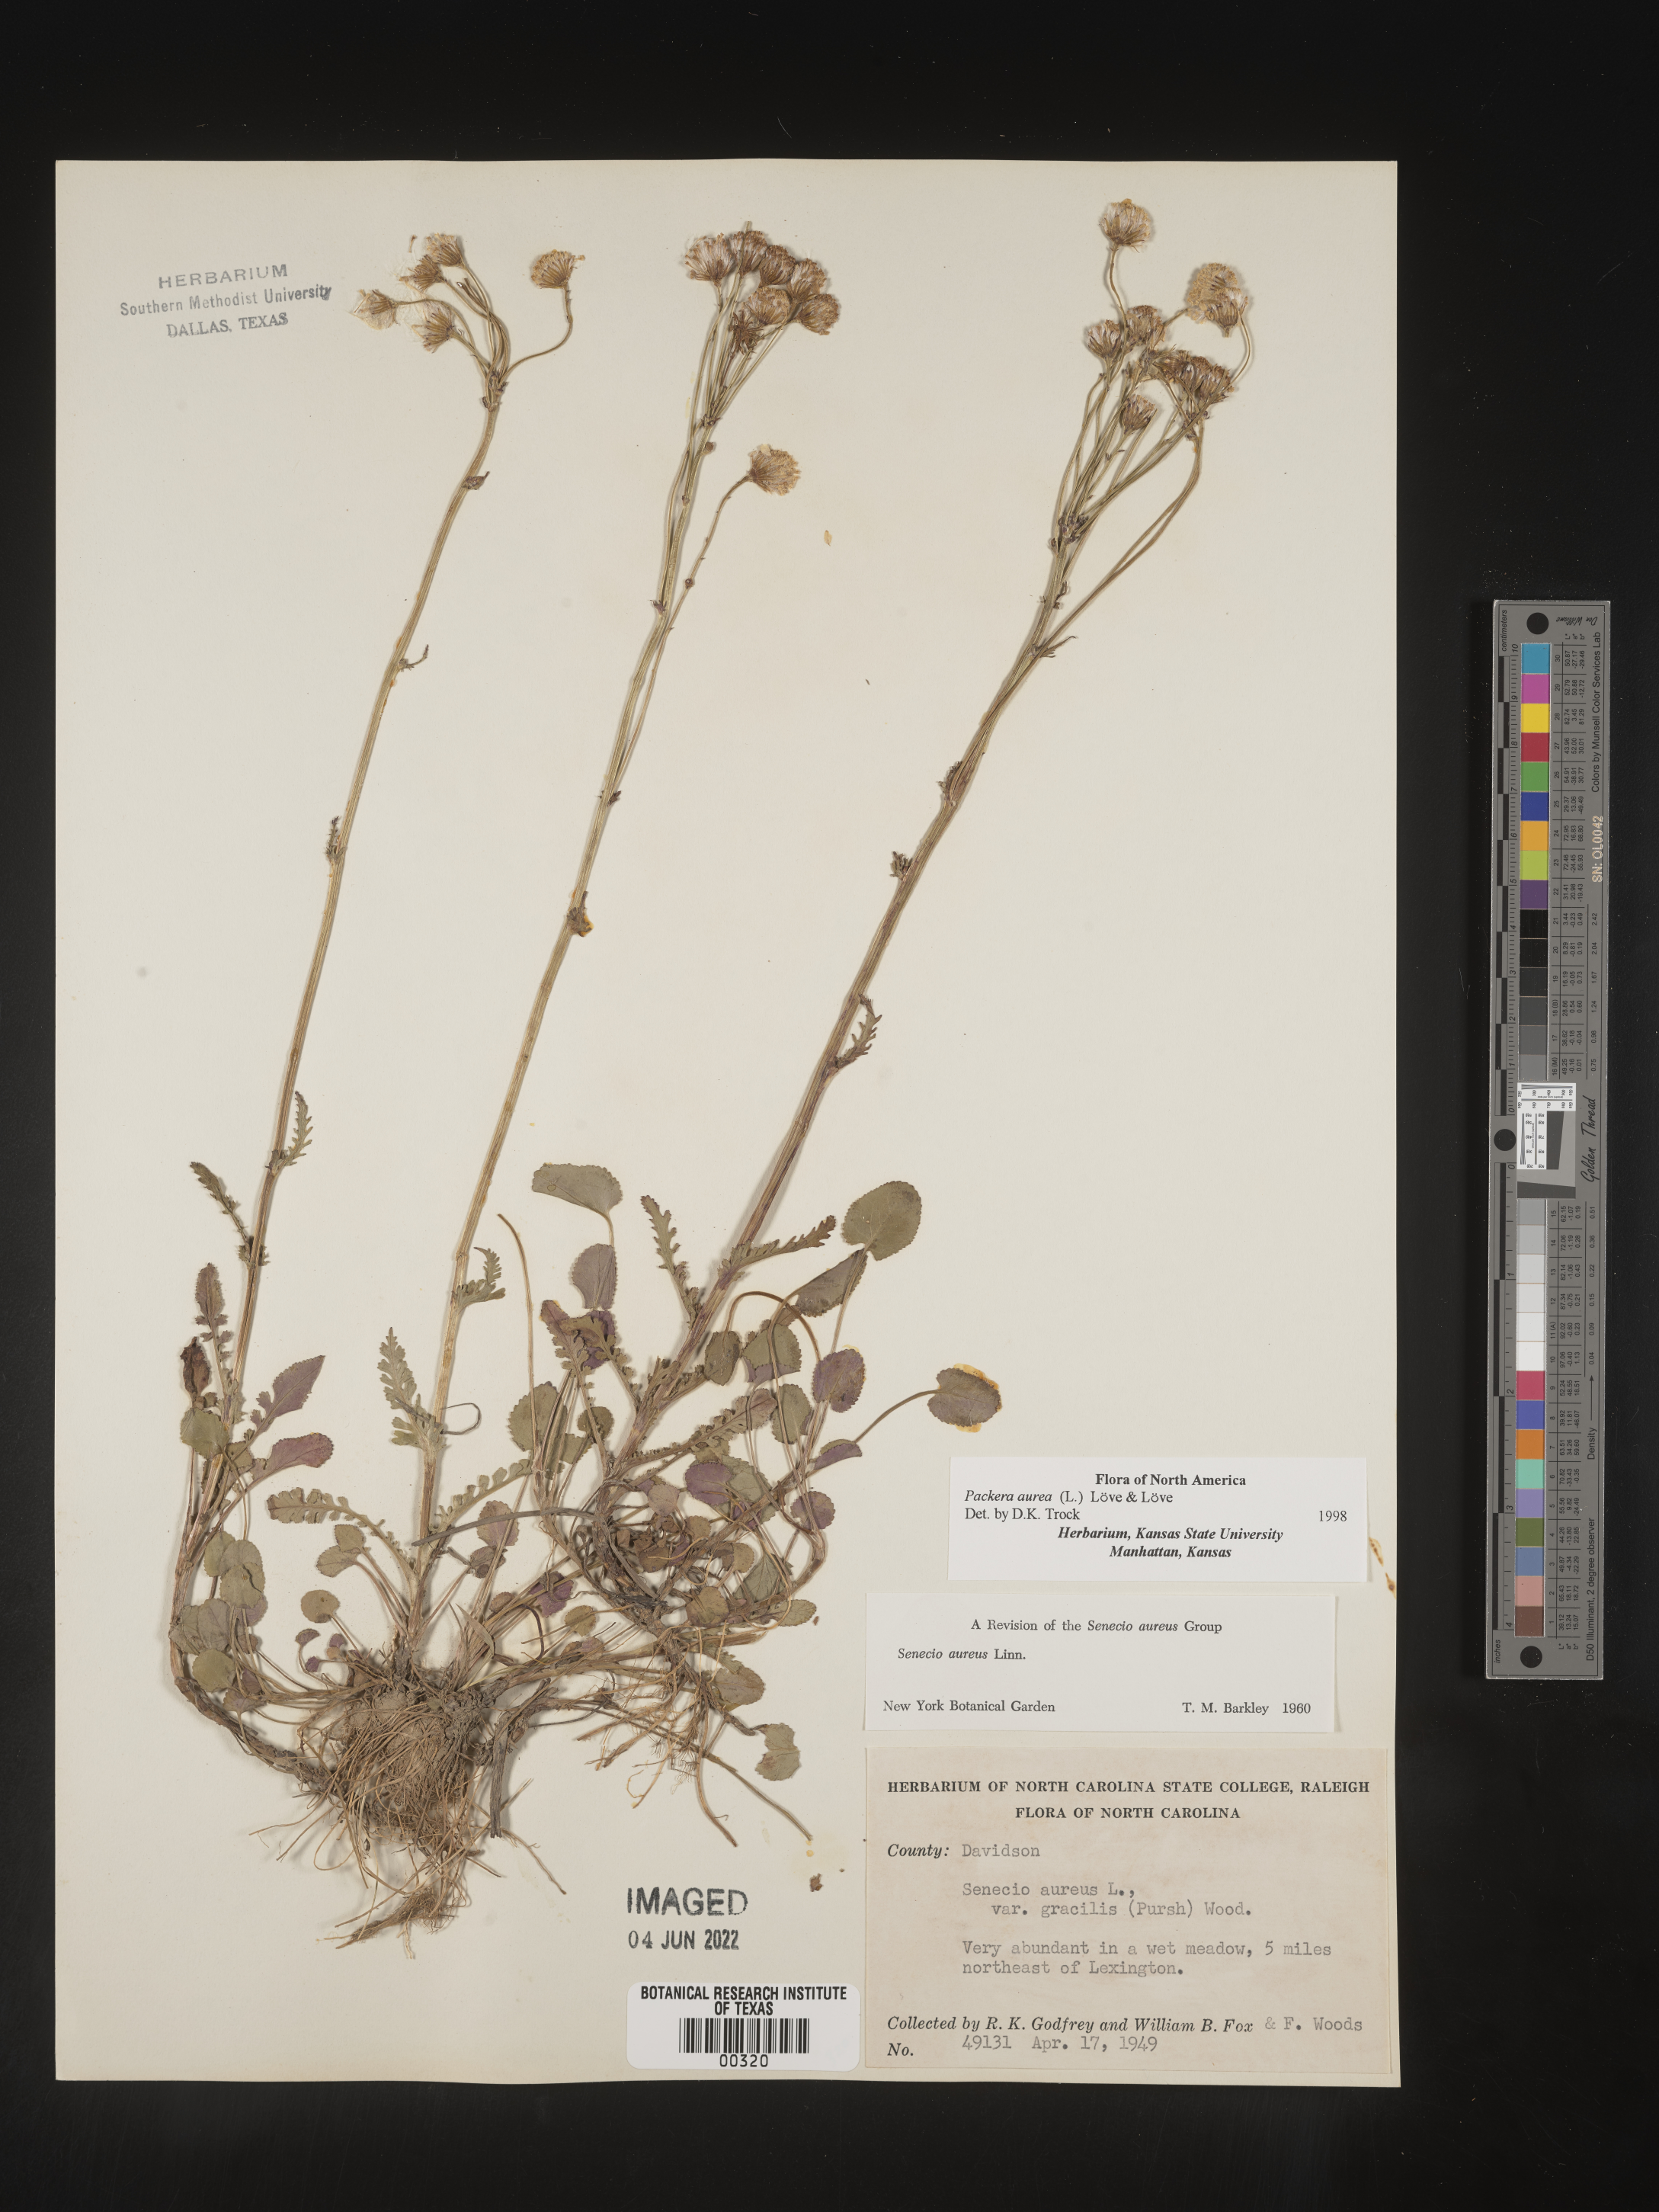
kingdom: Plantae
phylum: Tracheophyta
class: Magnoliopsida
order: Asterales
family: Asteraceae
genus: Packera
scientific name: Packera aurea
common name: Golden groundsel
